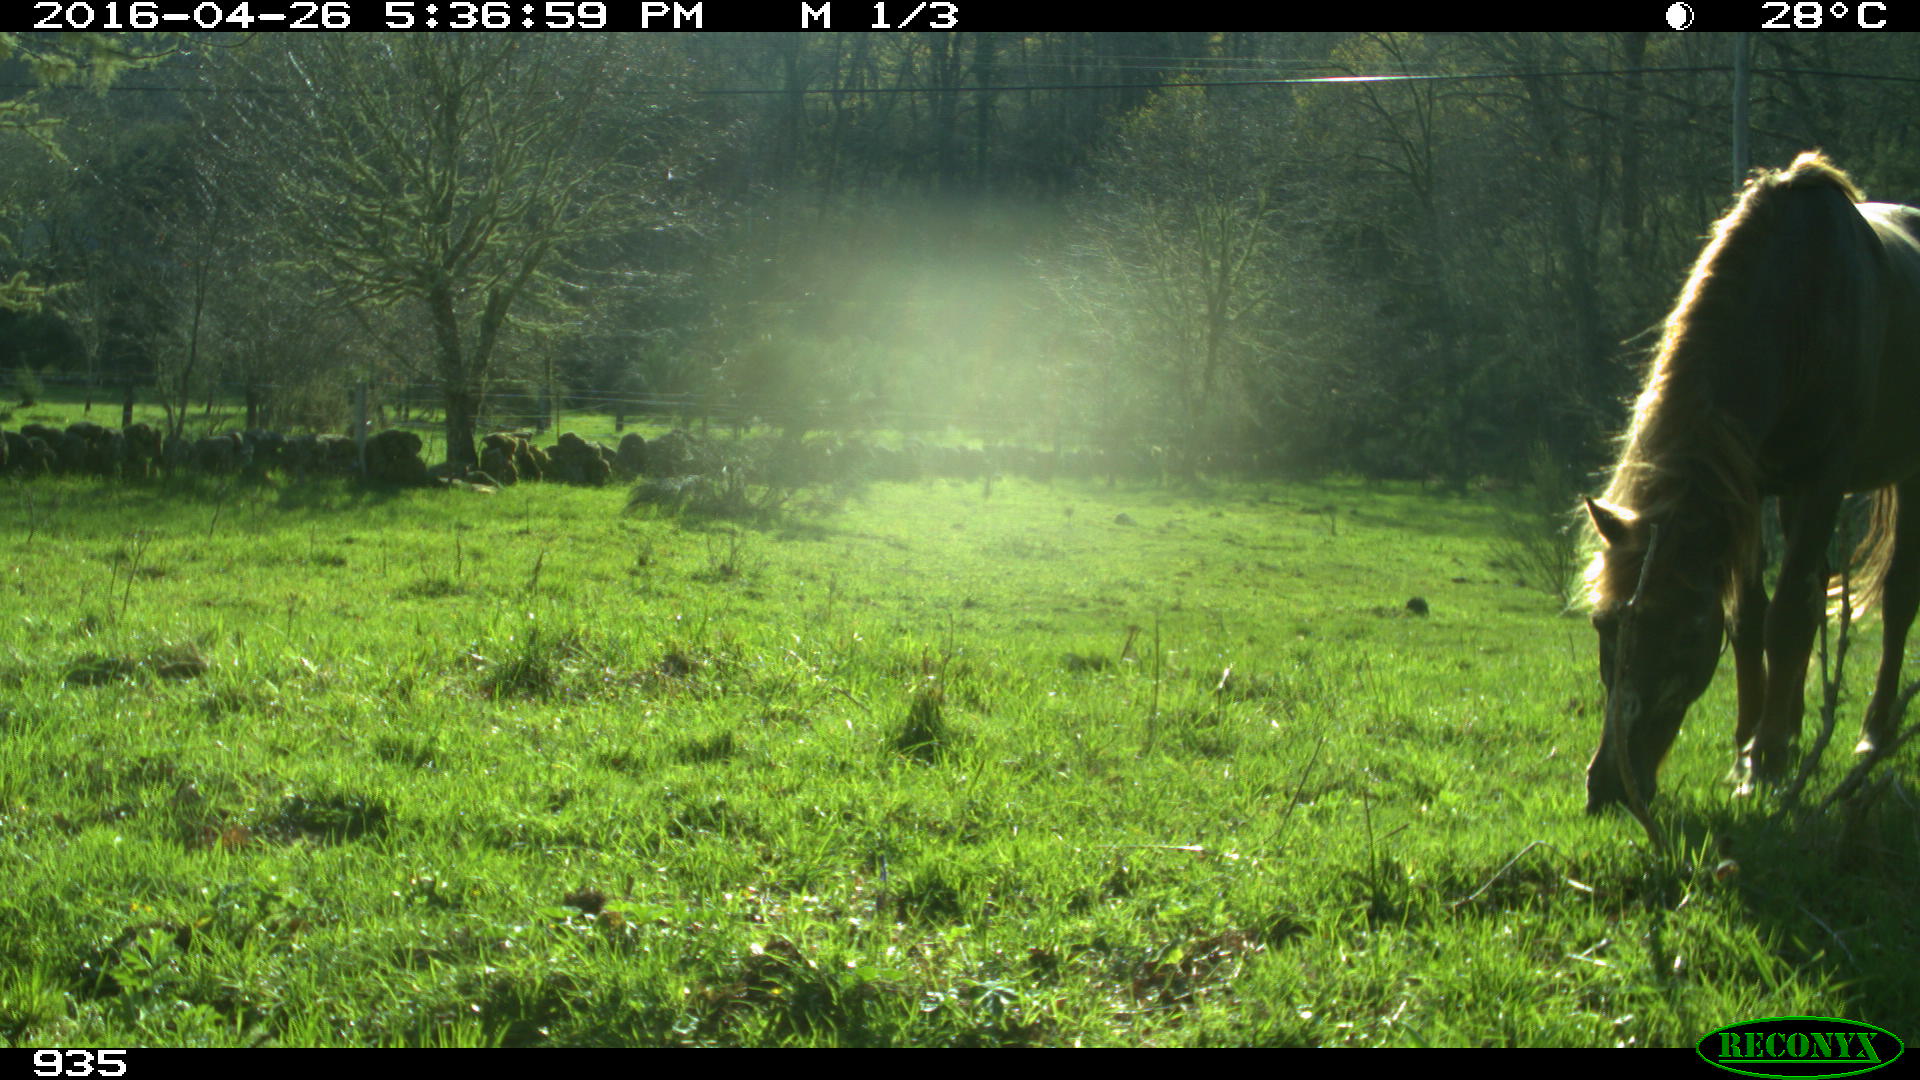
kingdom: Animalia
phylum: Chordata
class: Mammalia
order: Perissodactyla
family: Equidae
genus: Equus
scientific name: Equus caballus
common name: Horse
